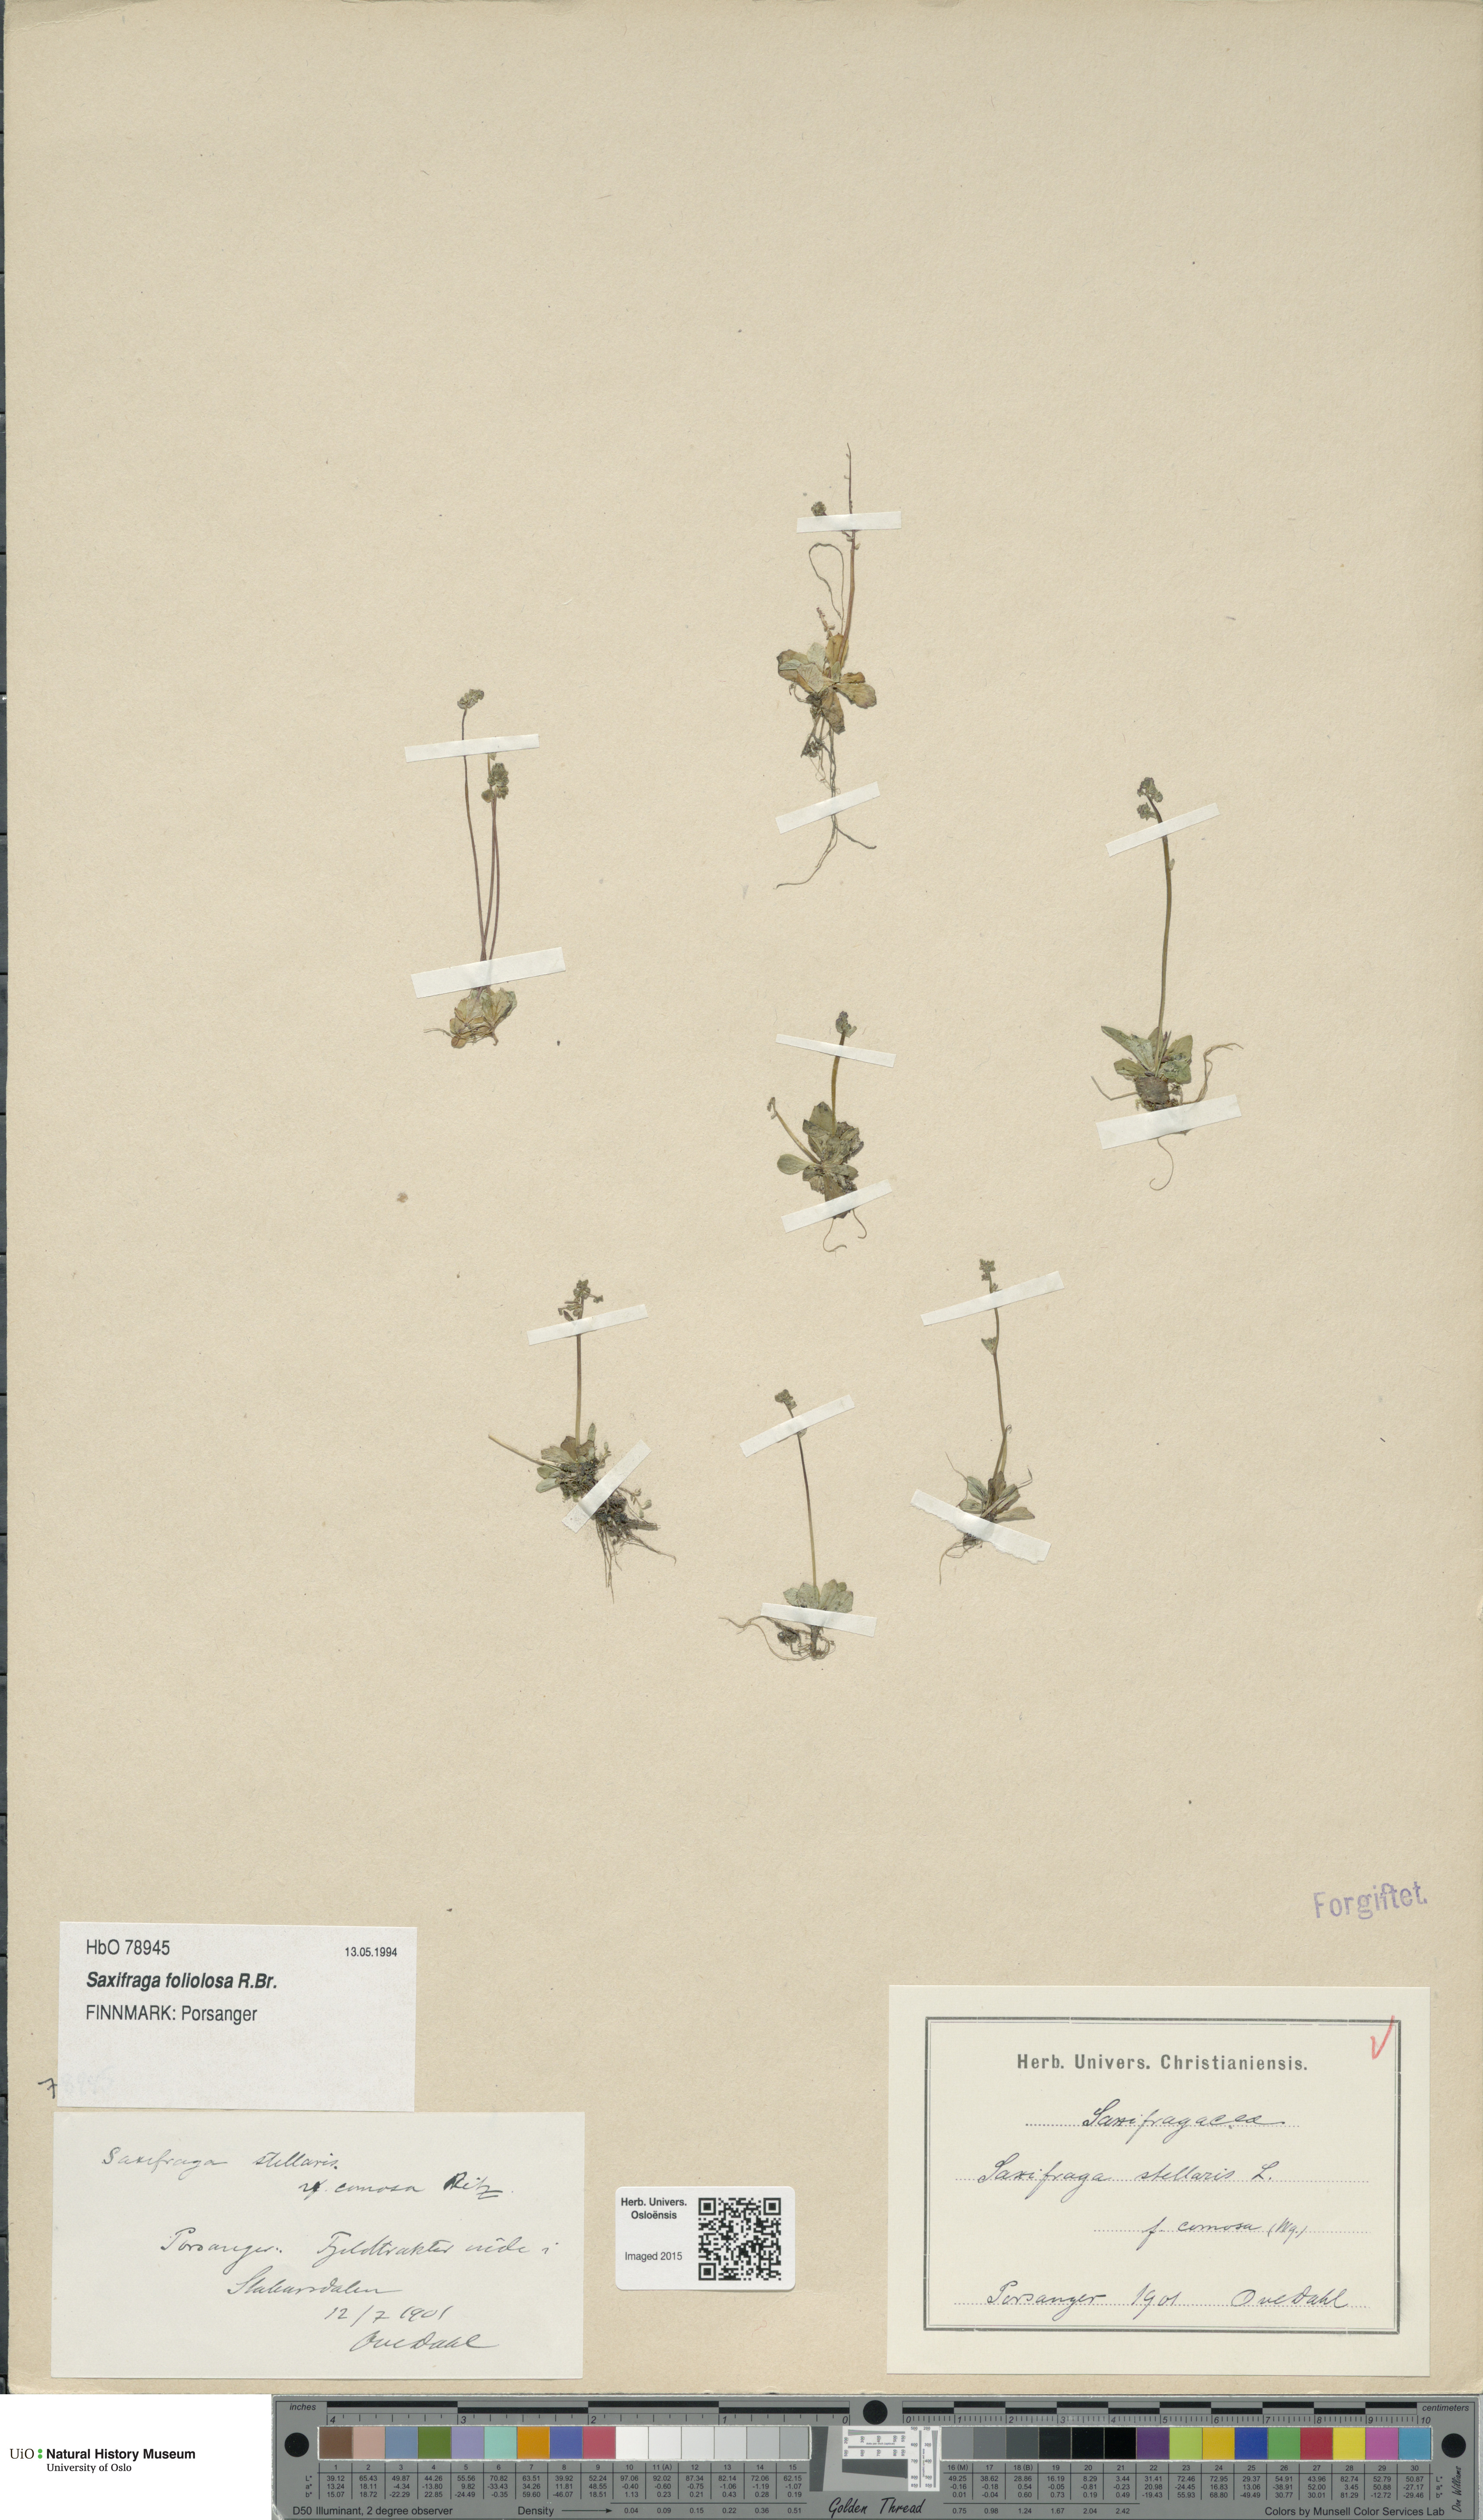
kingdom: Plantae
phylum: Tracheophyta
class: Magnoliopsida
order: Saxifragales
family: Saxifragaceae
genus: Micranthes
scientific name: Micranthes foliolosa
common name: Leafystem saxifrage
